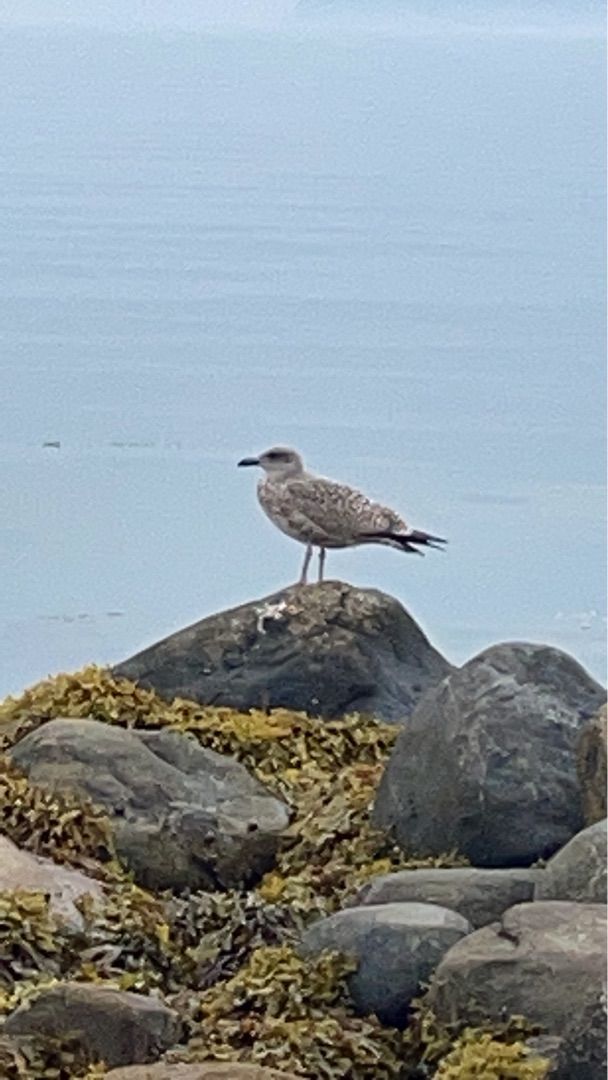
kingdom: Animalia
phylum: Chordata
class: Aves
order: Charadriiformes
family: Laridae
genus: Larus
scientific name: Larus argentatus
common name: Sølvmåge
